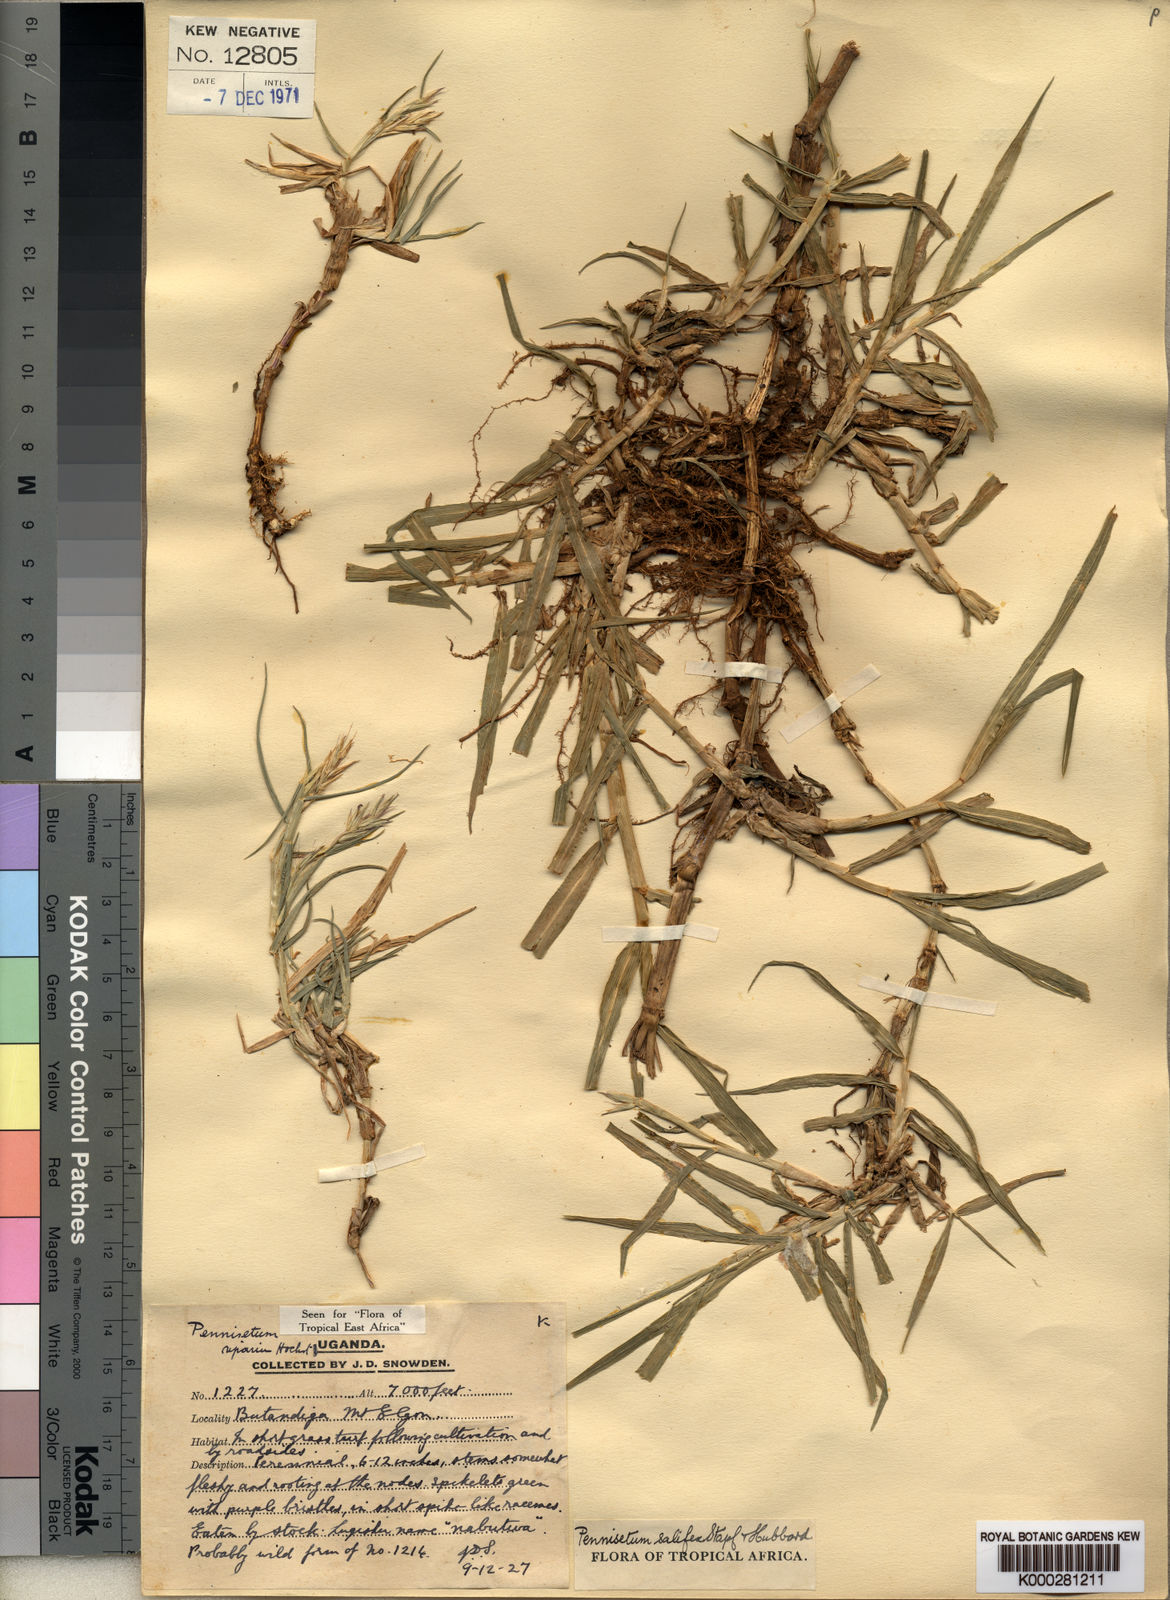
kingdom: Plantae
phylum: Tracheophyta
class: Liliopsida
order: Poales
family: Poaceae
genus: Cenchrus
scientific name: Cenchrus riparius
